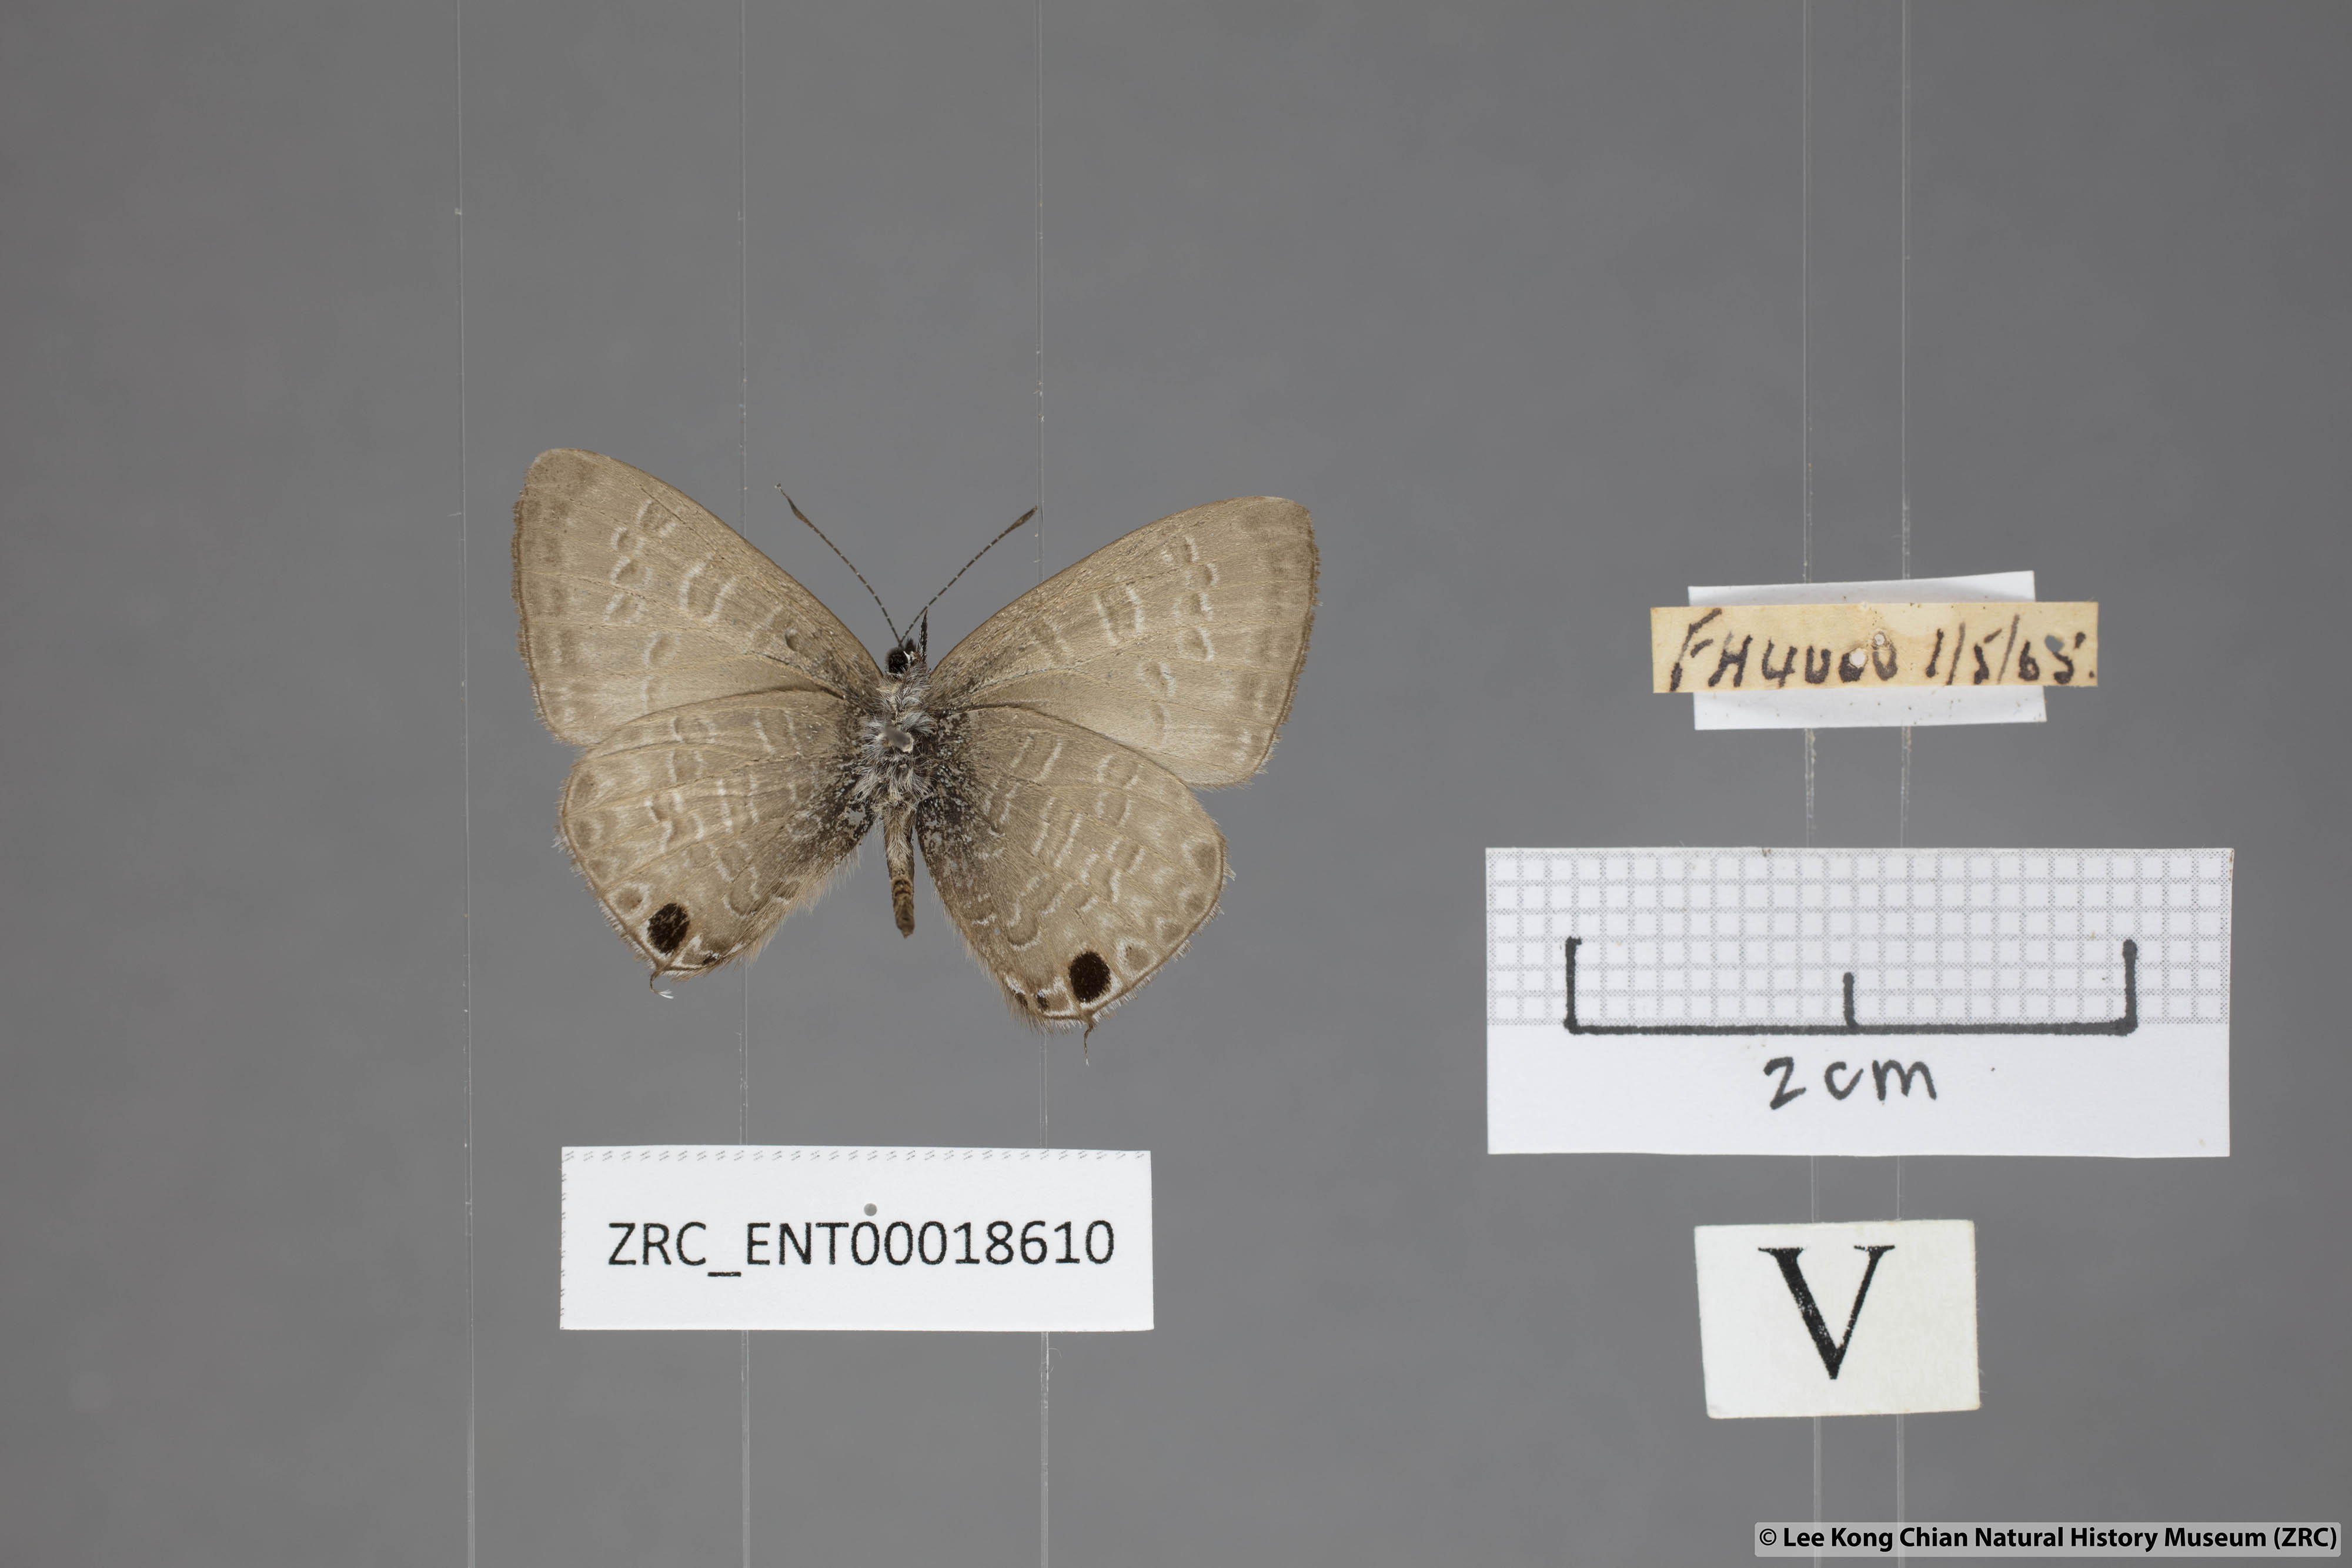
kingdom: Animalia
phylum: Arthropoda
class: Insecta
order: Lepidoptera
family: Lycaenidae
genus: Prosotas
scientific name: Prosotas nelides
